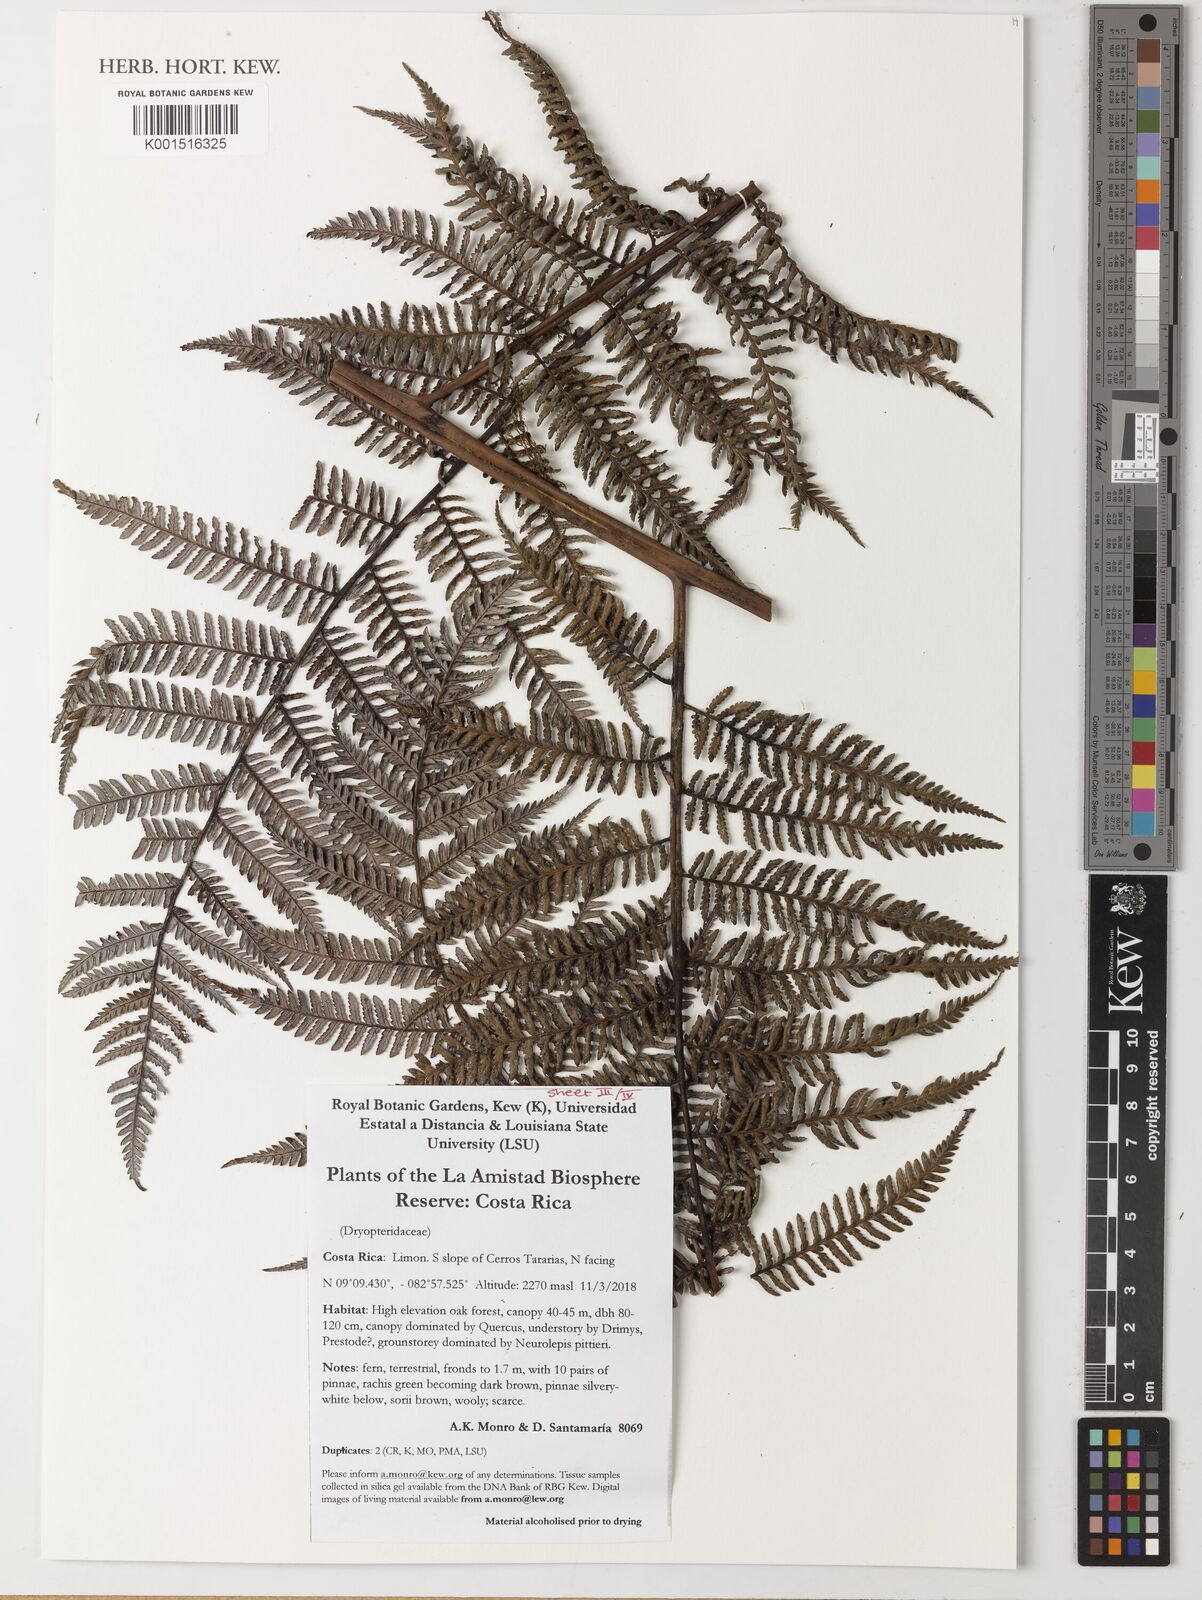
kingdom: Plantae
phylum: Tracheophyta
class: Polypodiopsida
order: Polypodiales
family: Dryopteridaceae
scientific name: Dryopteridaceae
